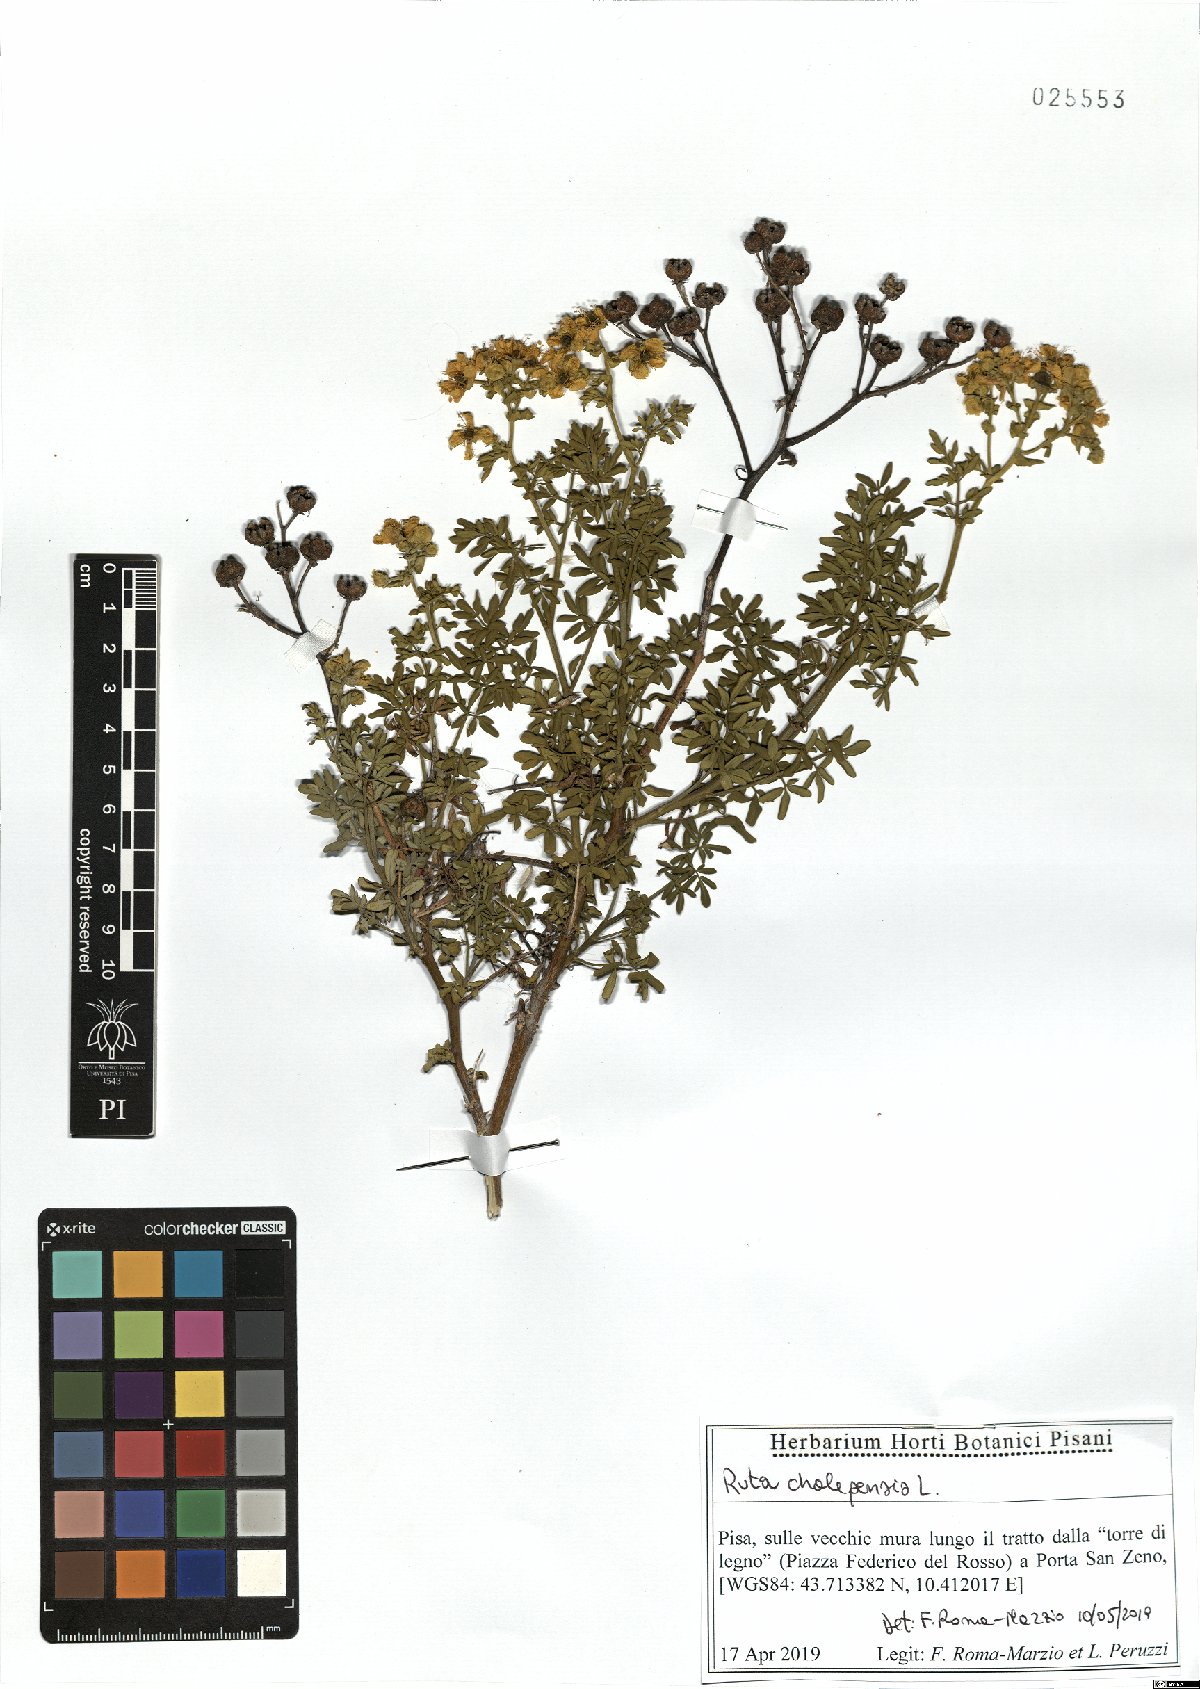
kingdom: Plantae
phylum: Tracheophyta
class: Magnoliopsida
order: Sapindales
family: Rutaceae
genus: Ruta
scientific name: Ruta chalepensis
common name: Fringed rue
